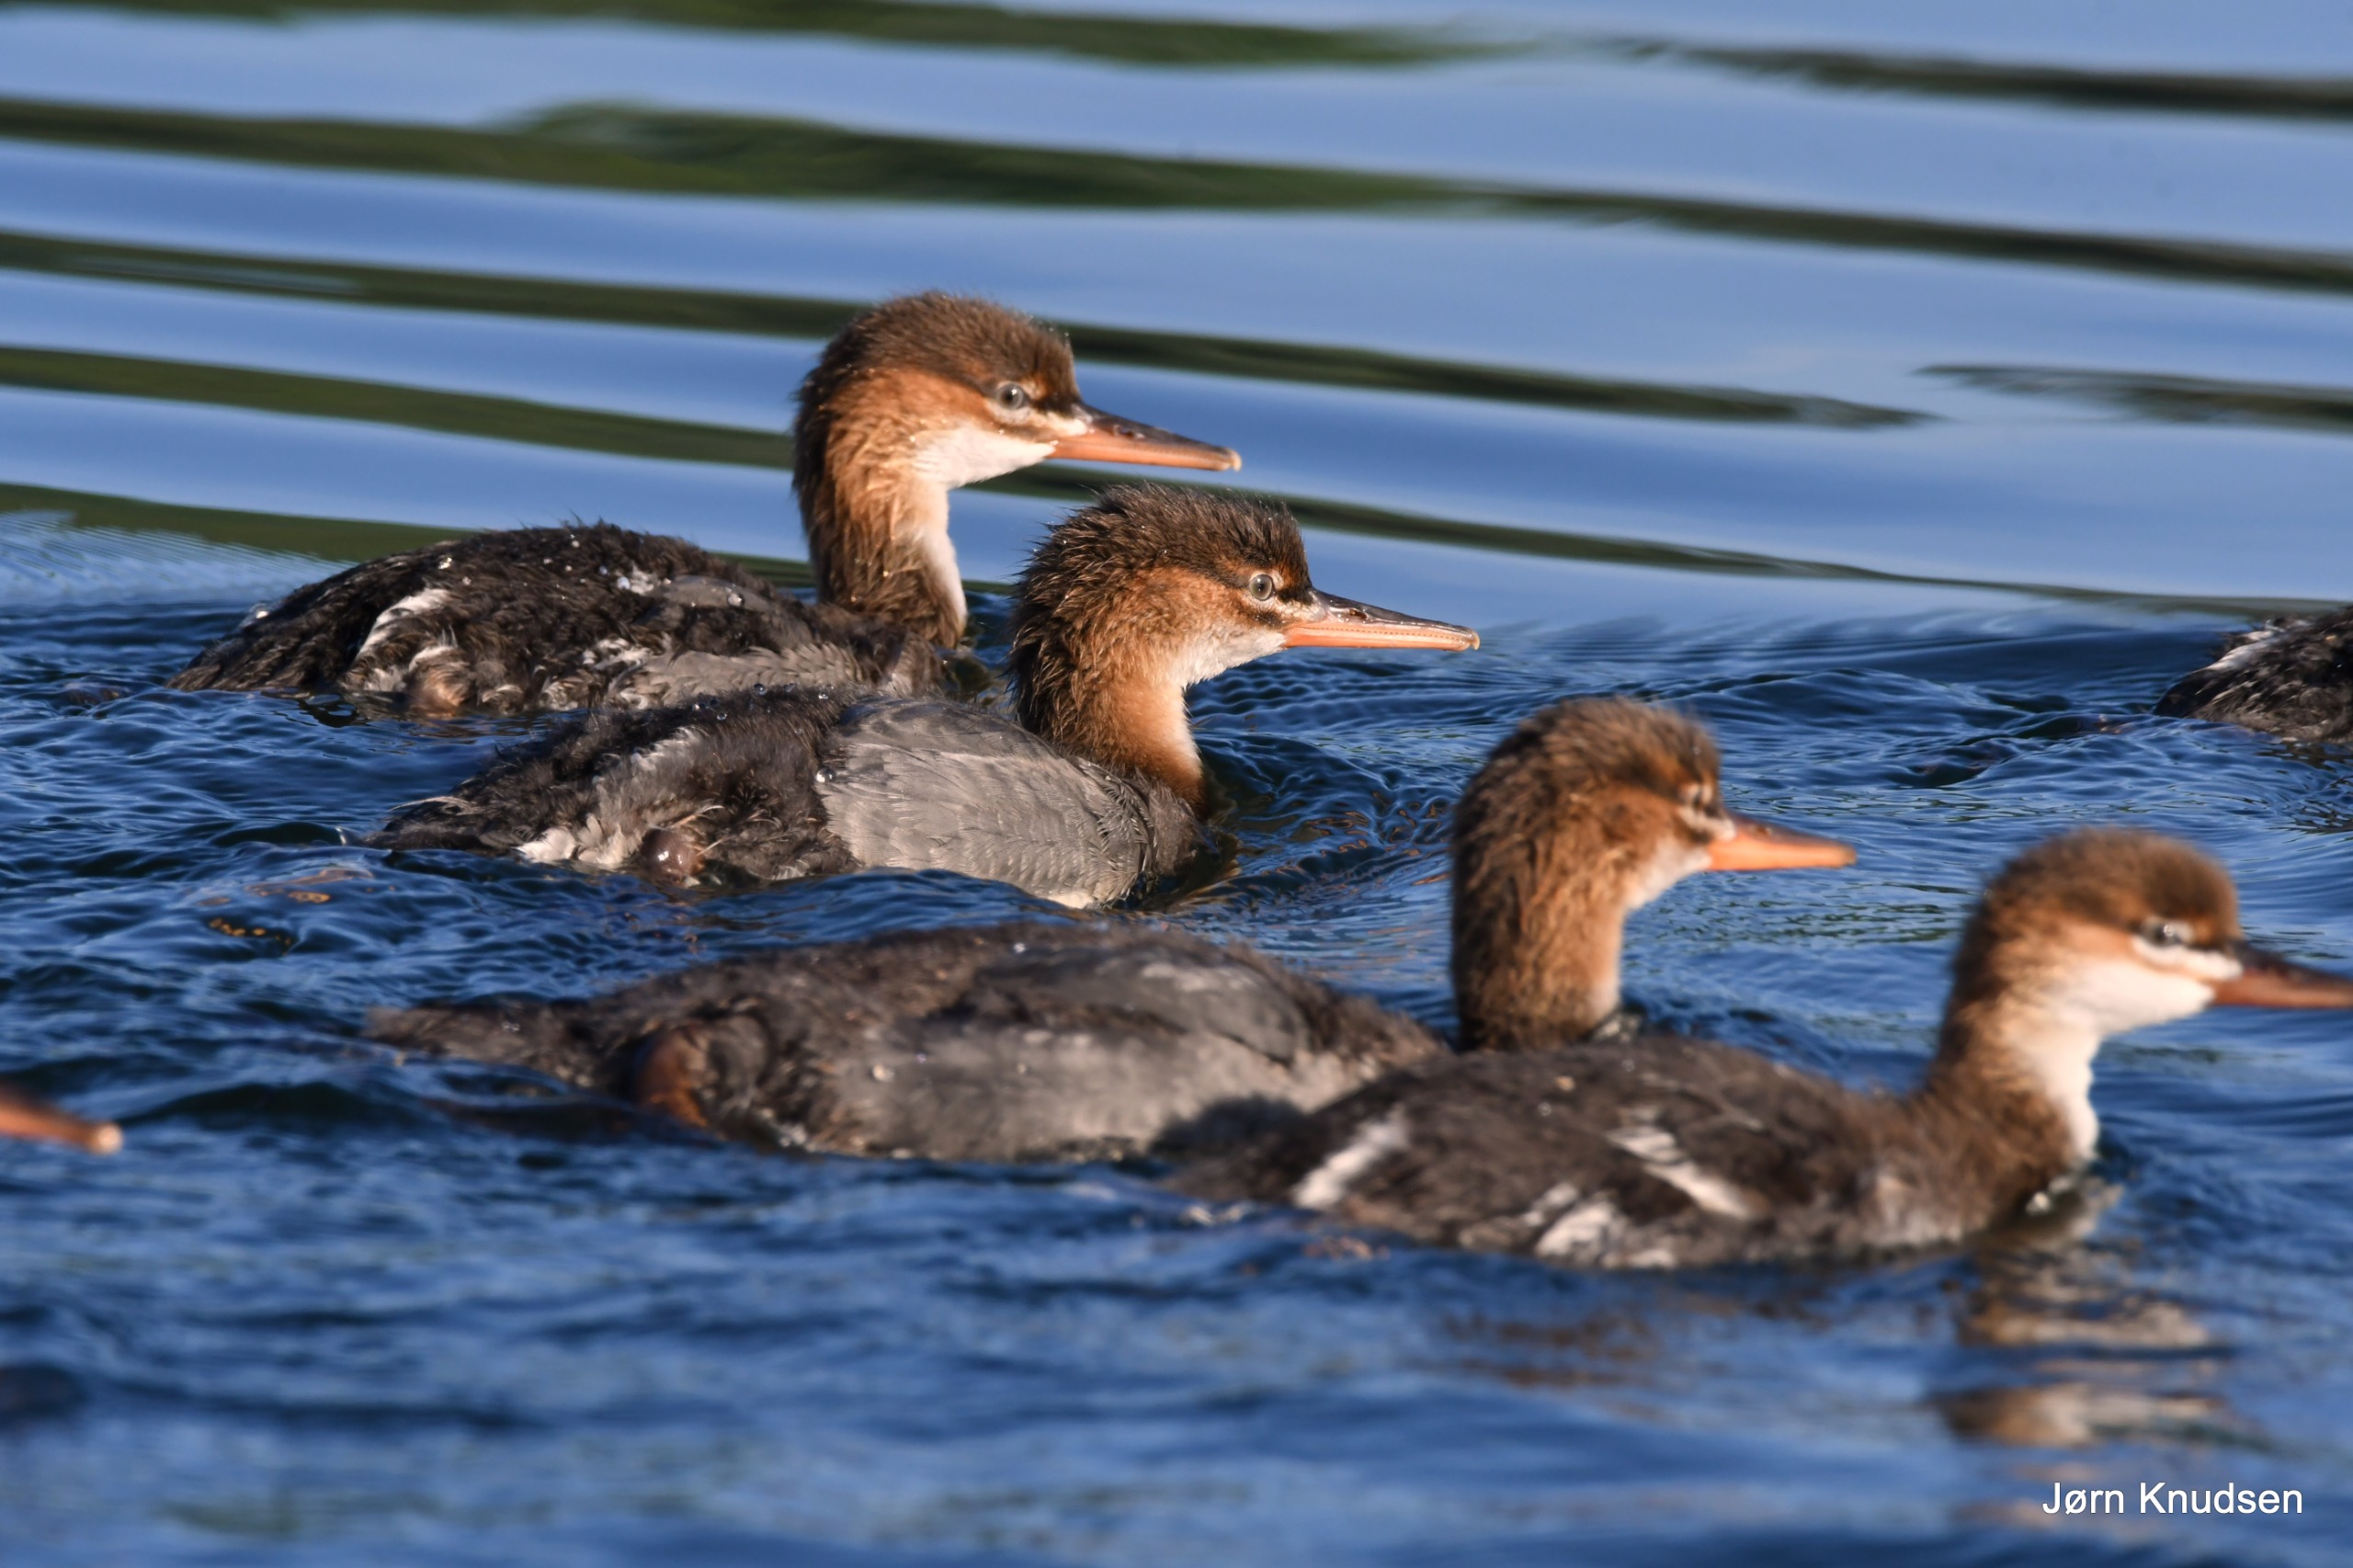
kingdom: Animalia
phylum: Chordata
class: Aves
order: Anseriformes
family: Anatidae
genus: Mergus
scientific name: Mergus serrator
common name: Toppet skallesluger
